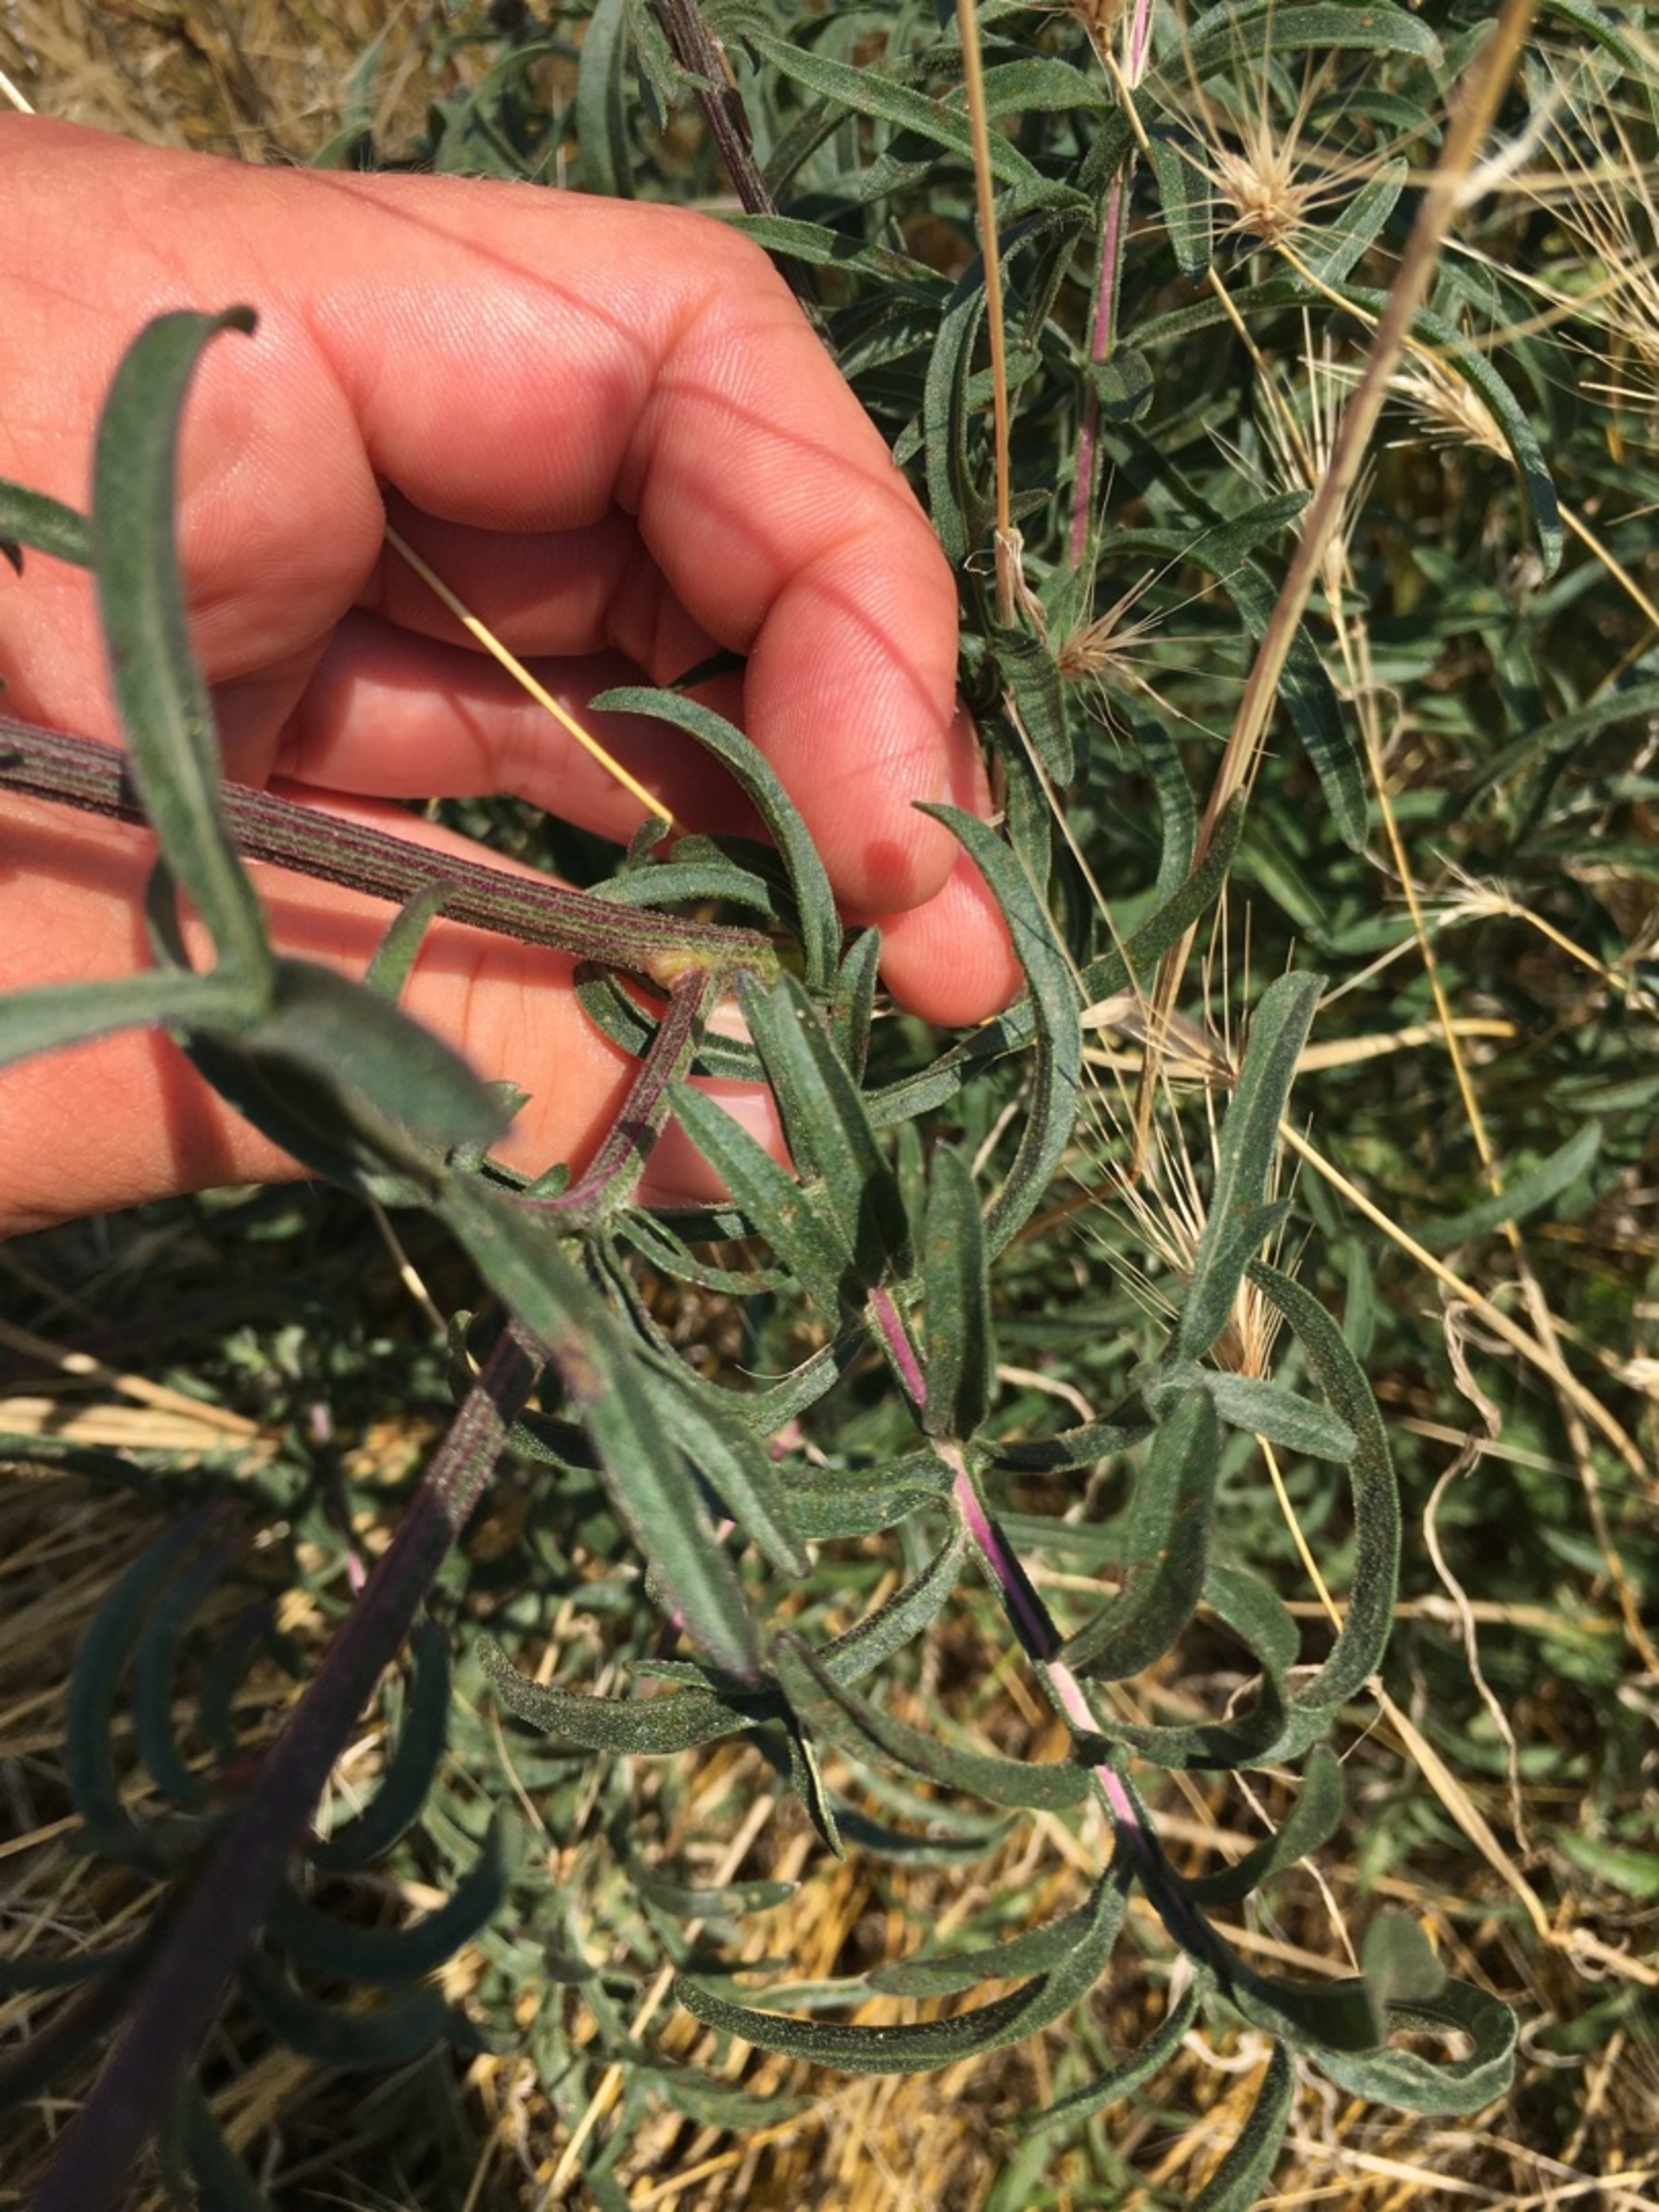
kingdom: Plantae
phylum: Tracheophyta
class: Magnoliopsida
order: Asterales
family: Asteraceae
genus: Centaurea
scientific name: Centaurea scabiosa
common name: Stor knopurt
